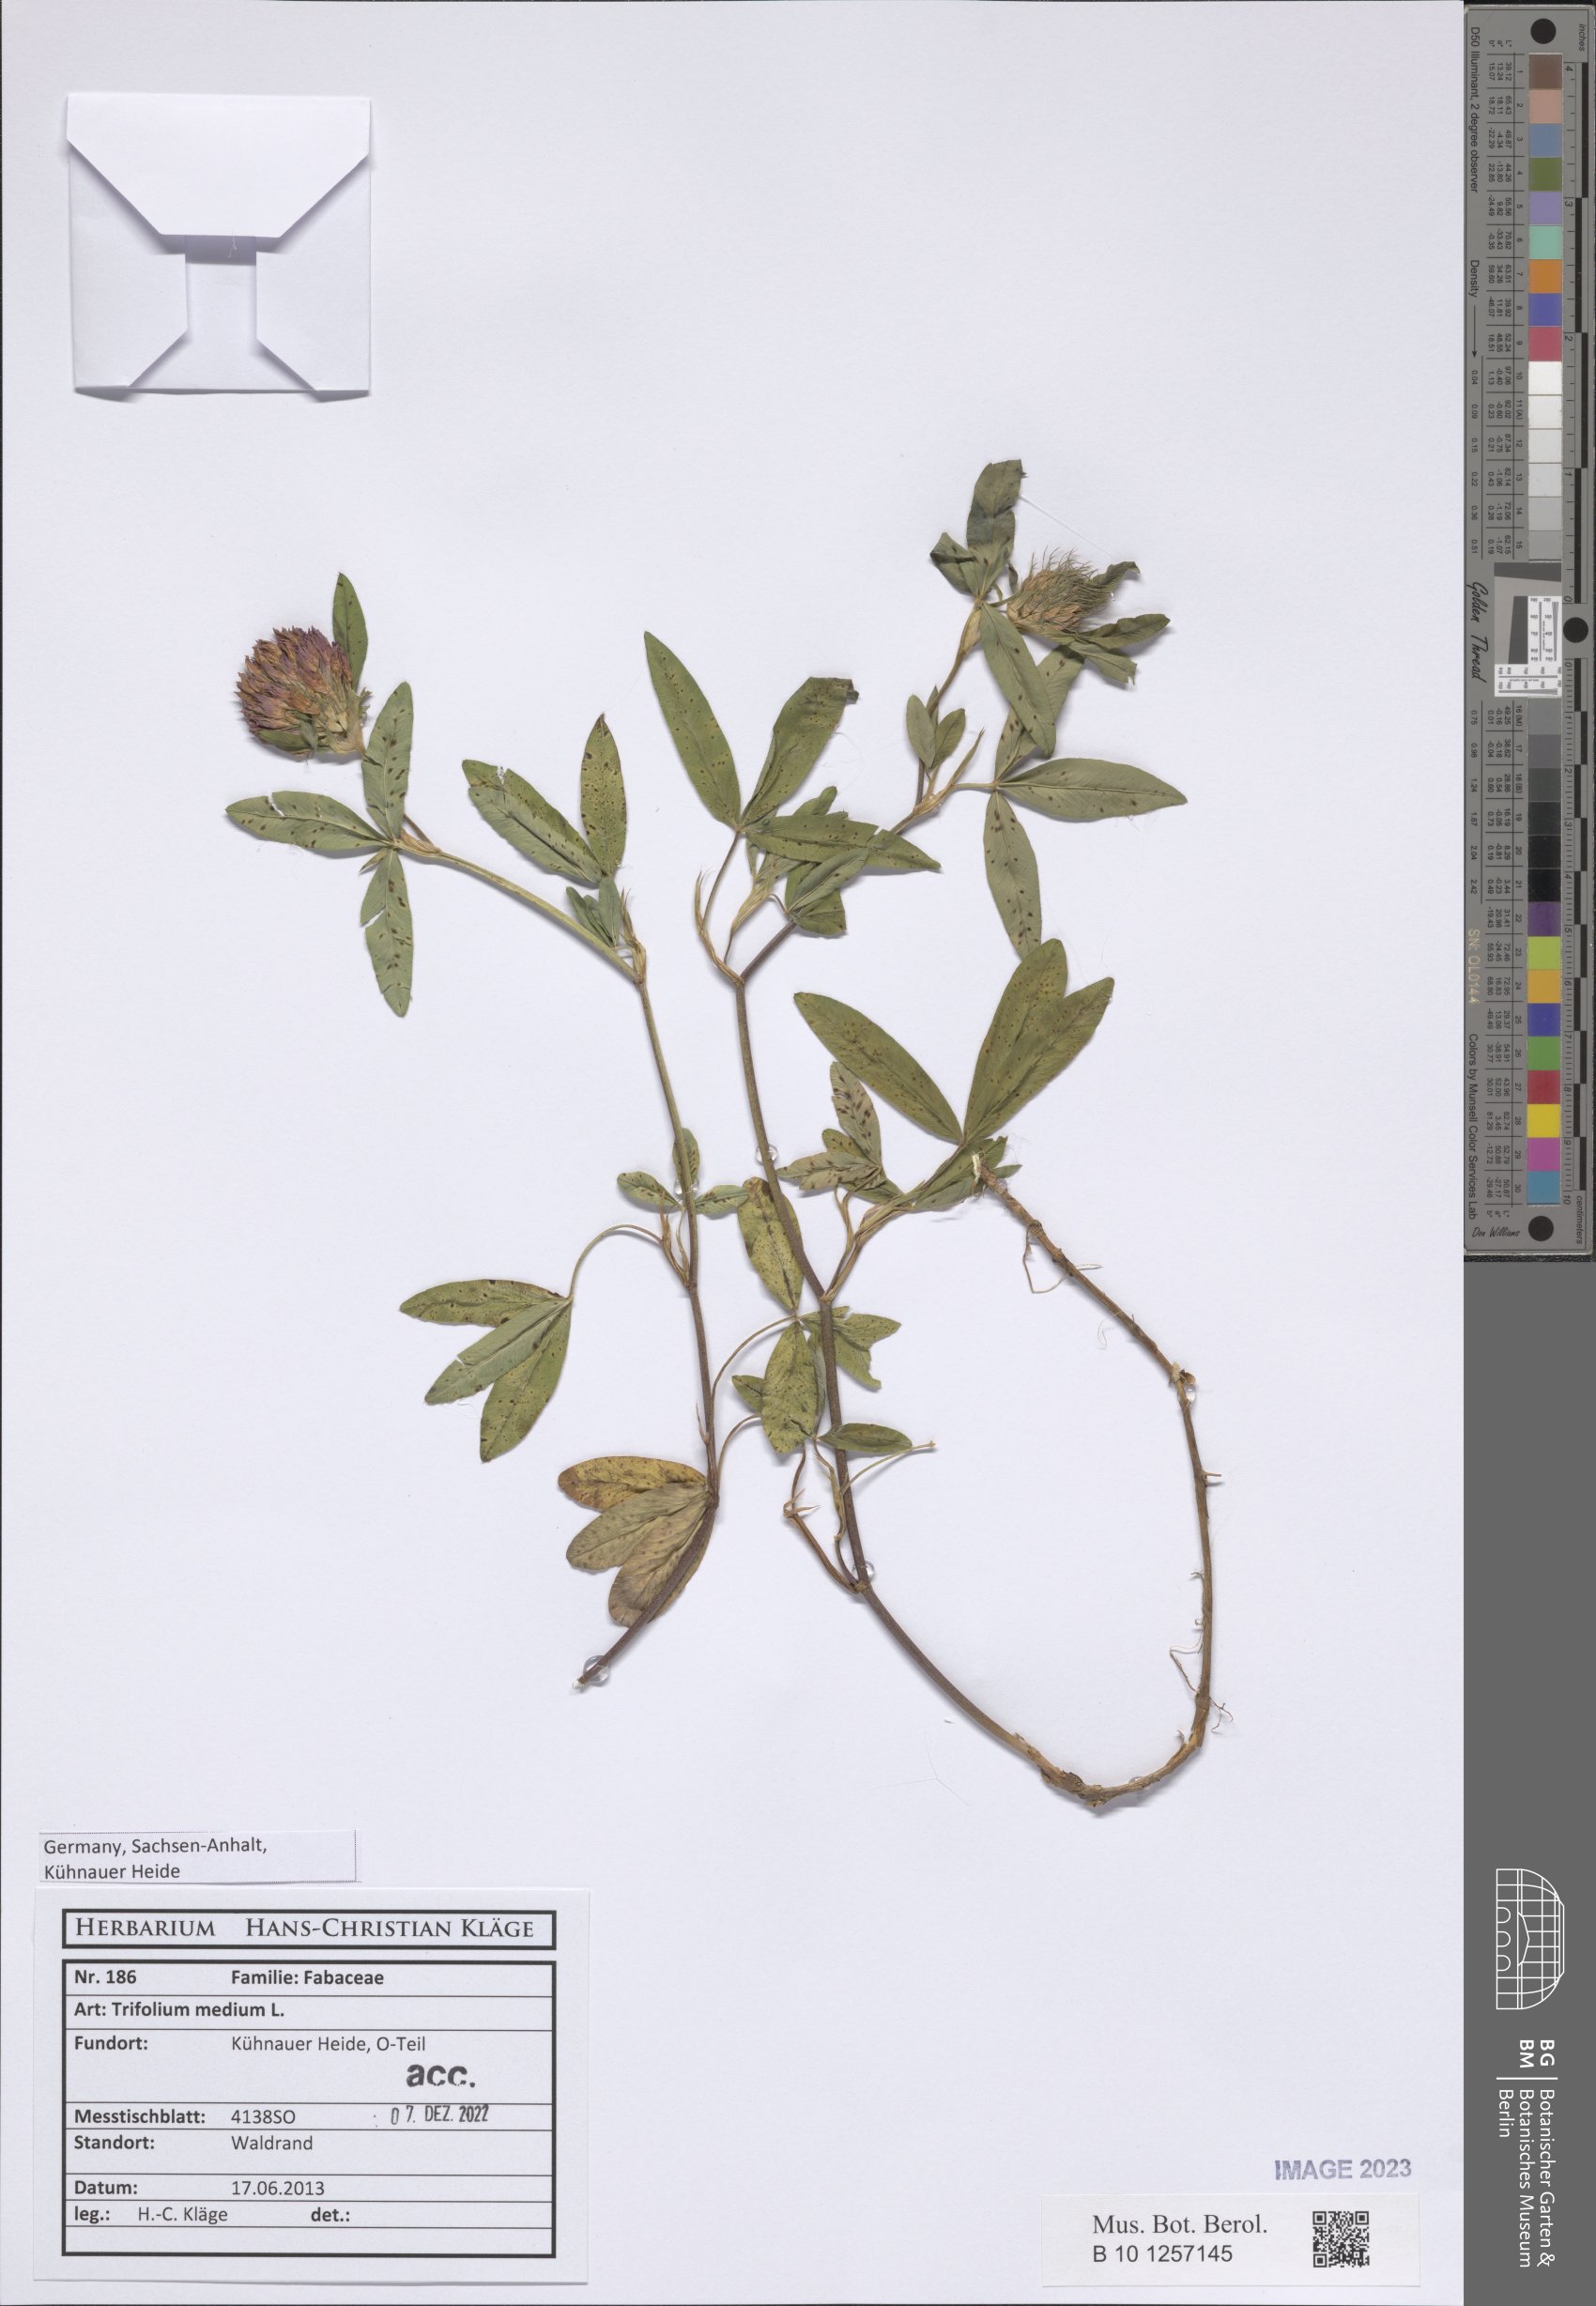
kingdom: Plantae
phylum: Tracheophyta
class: Magnoliopsida
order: Fabales
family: Fabaceae
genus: Trifolium
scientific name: Trifolium medium
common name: Zigzag clover
